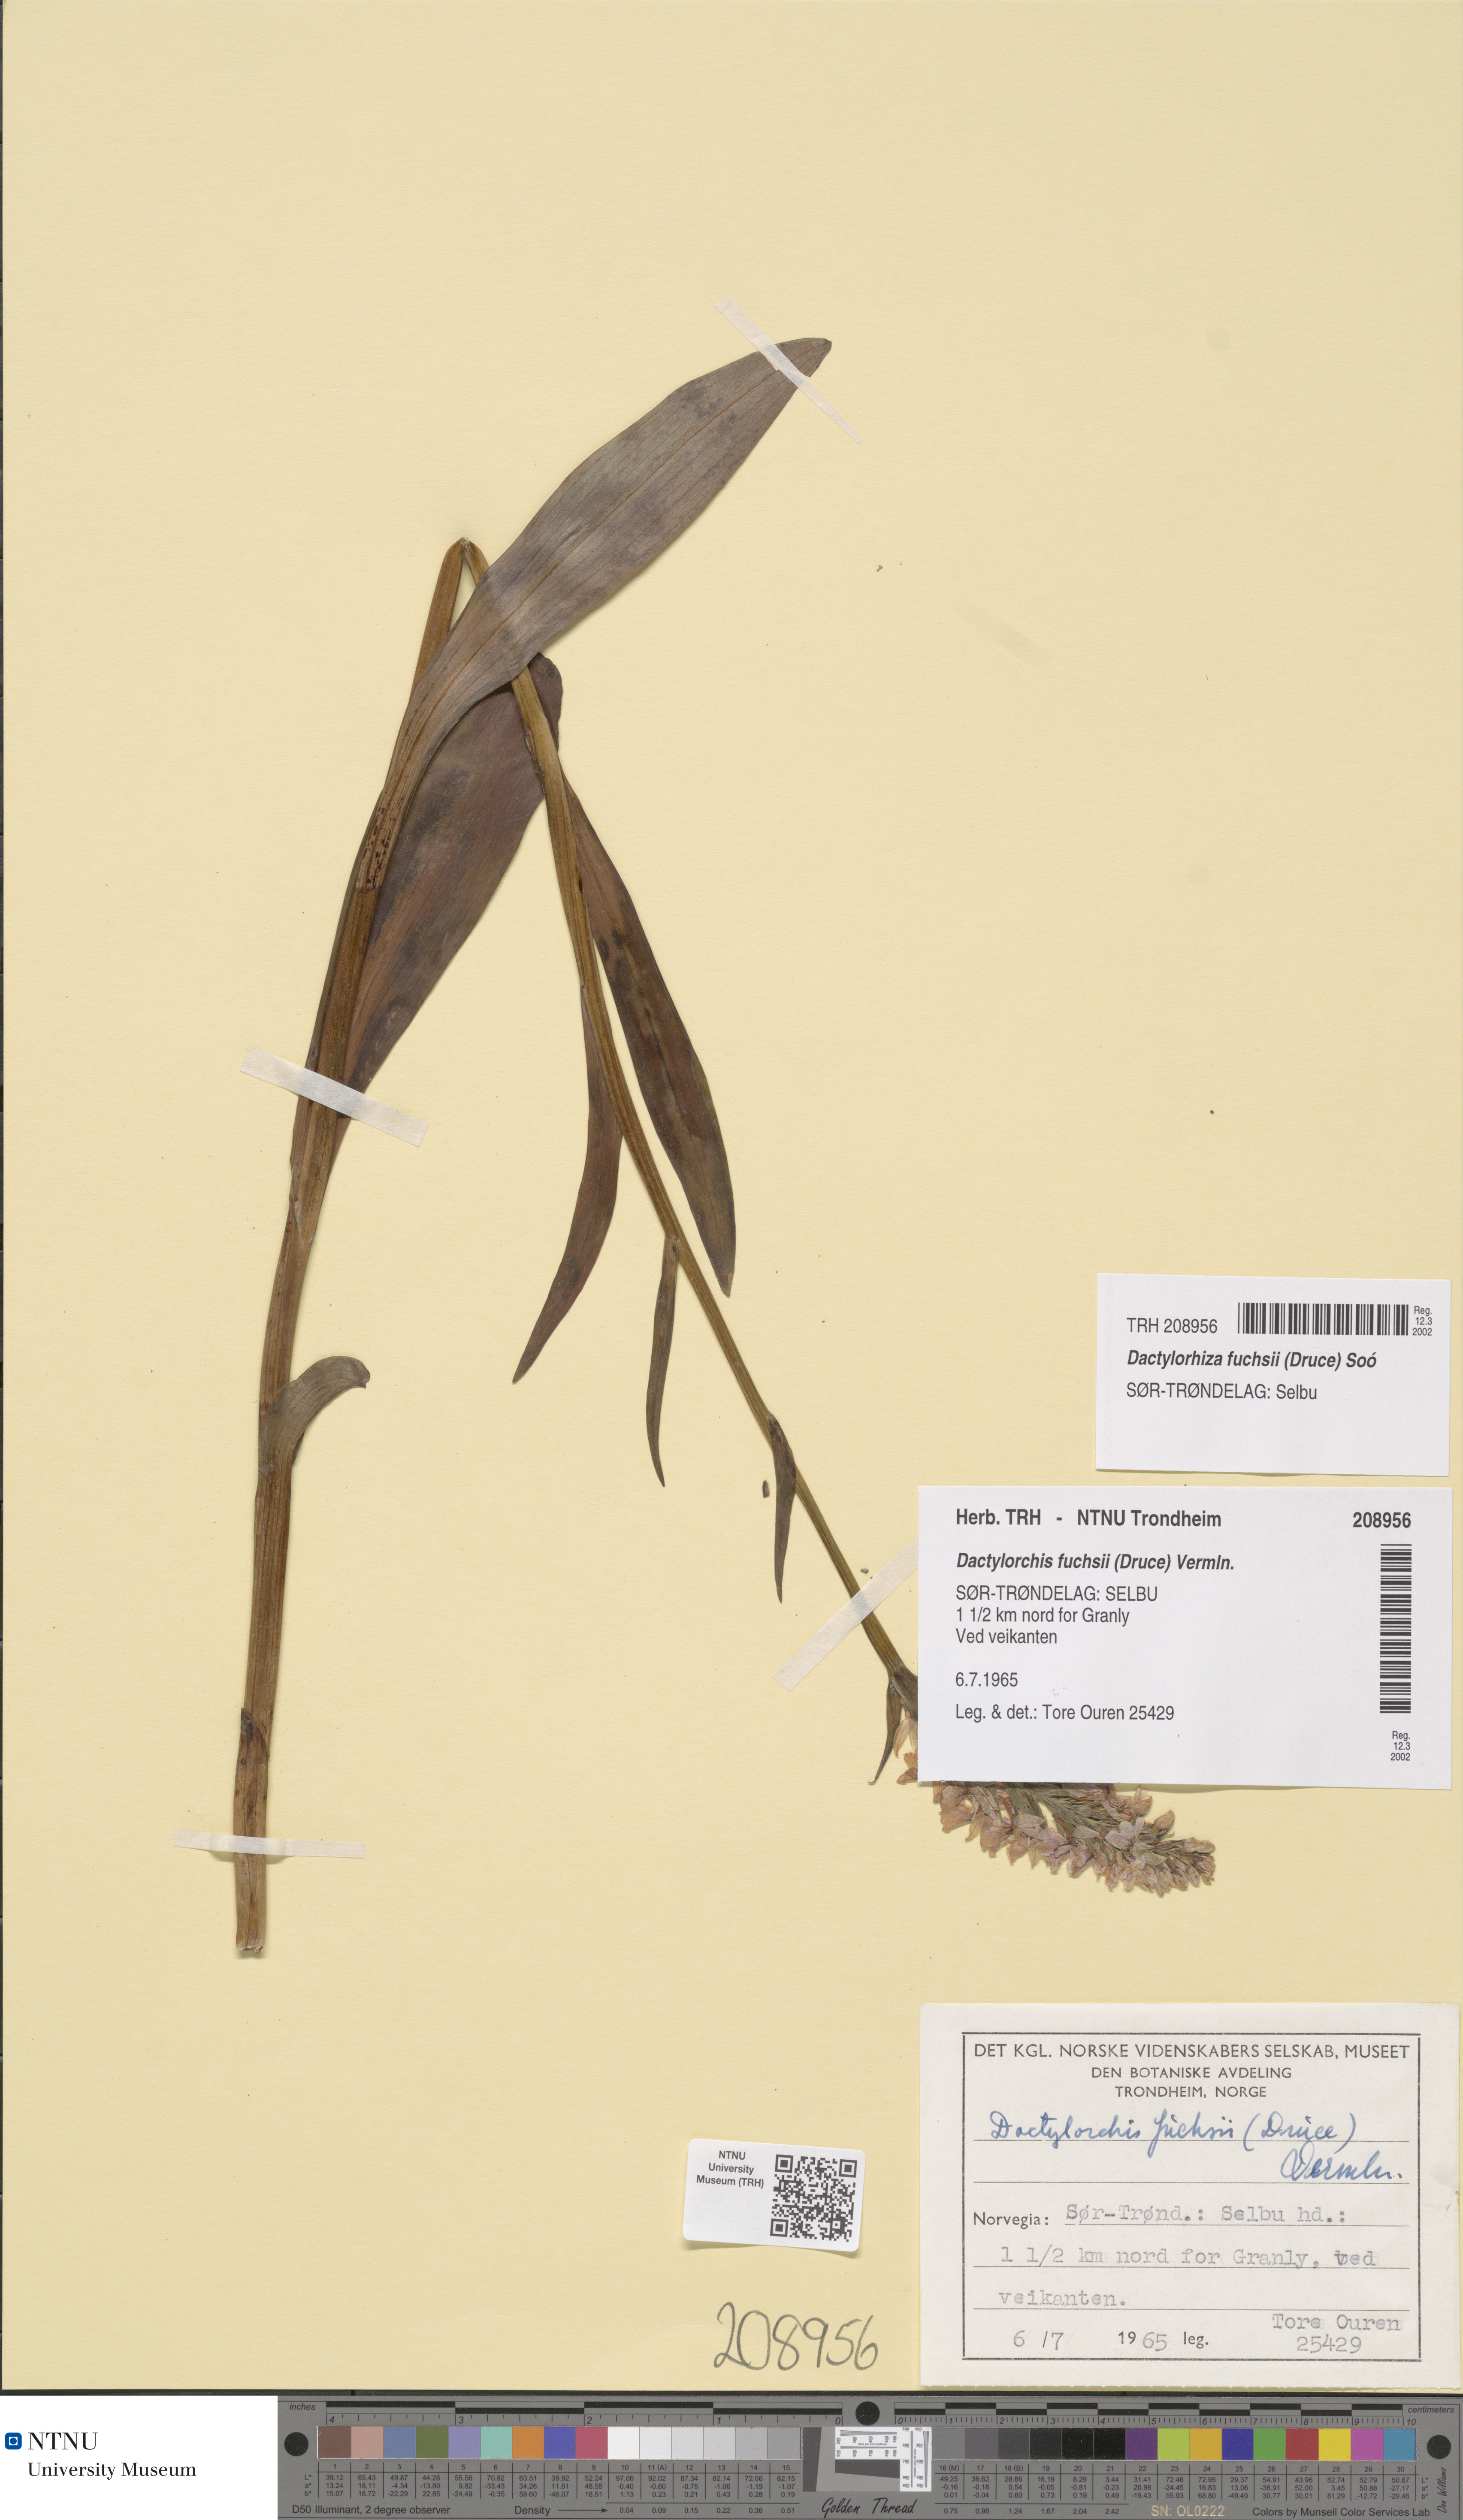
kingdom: Plantae
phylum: Tracheophyta
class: Liliopsida
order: Asparagales
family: Orchidaceae
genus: Dactylorhiza
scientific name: Dactylorhiza maculata
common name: Heath spotted-orchid
